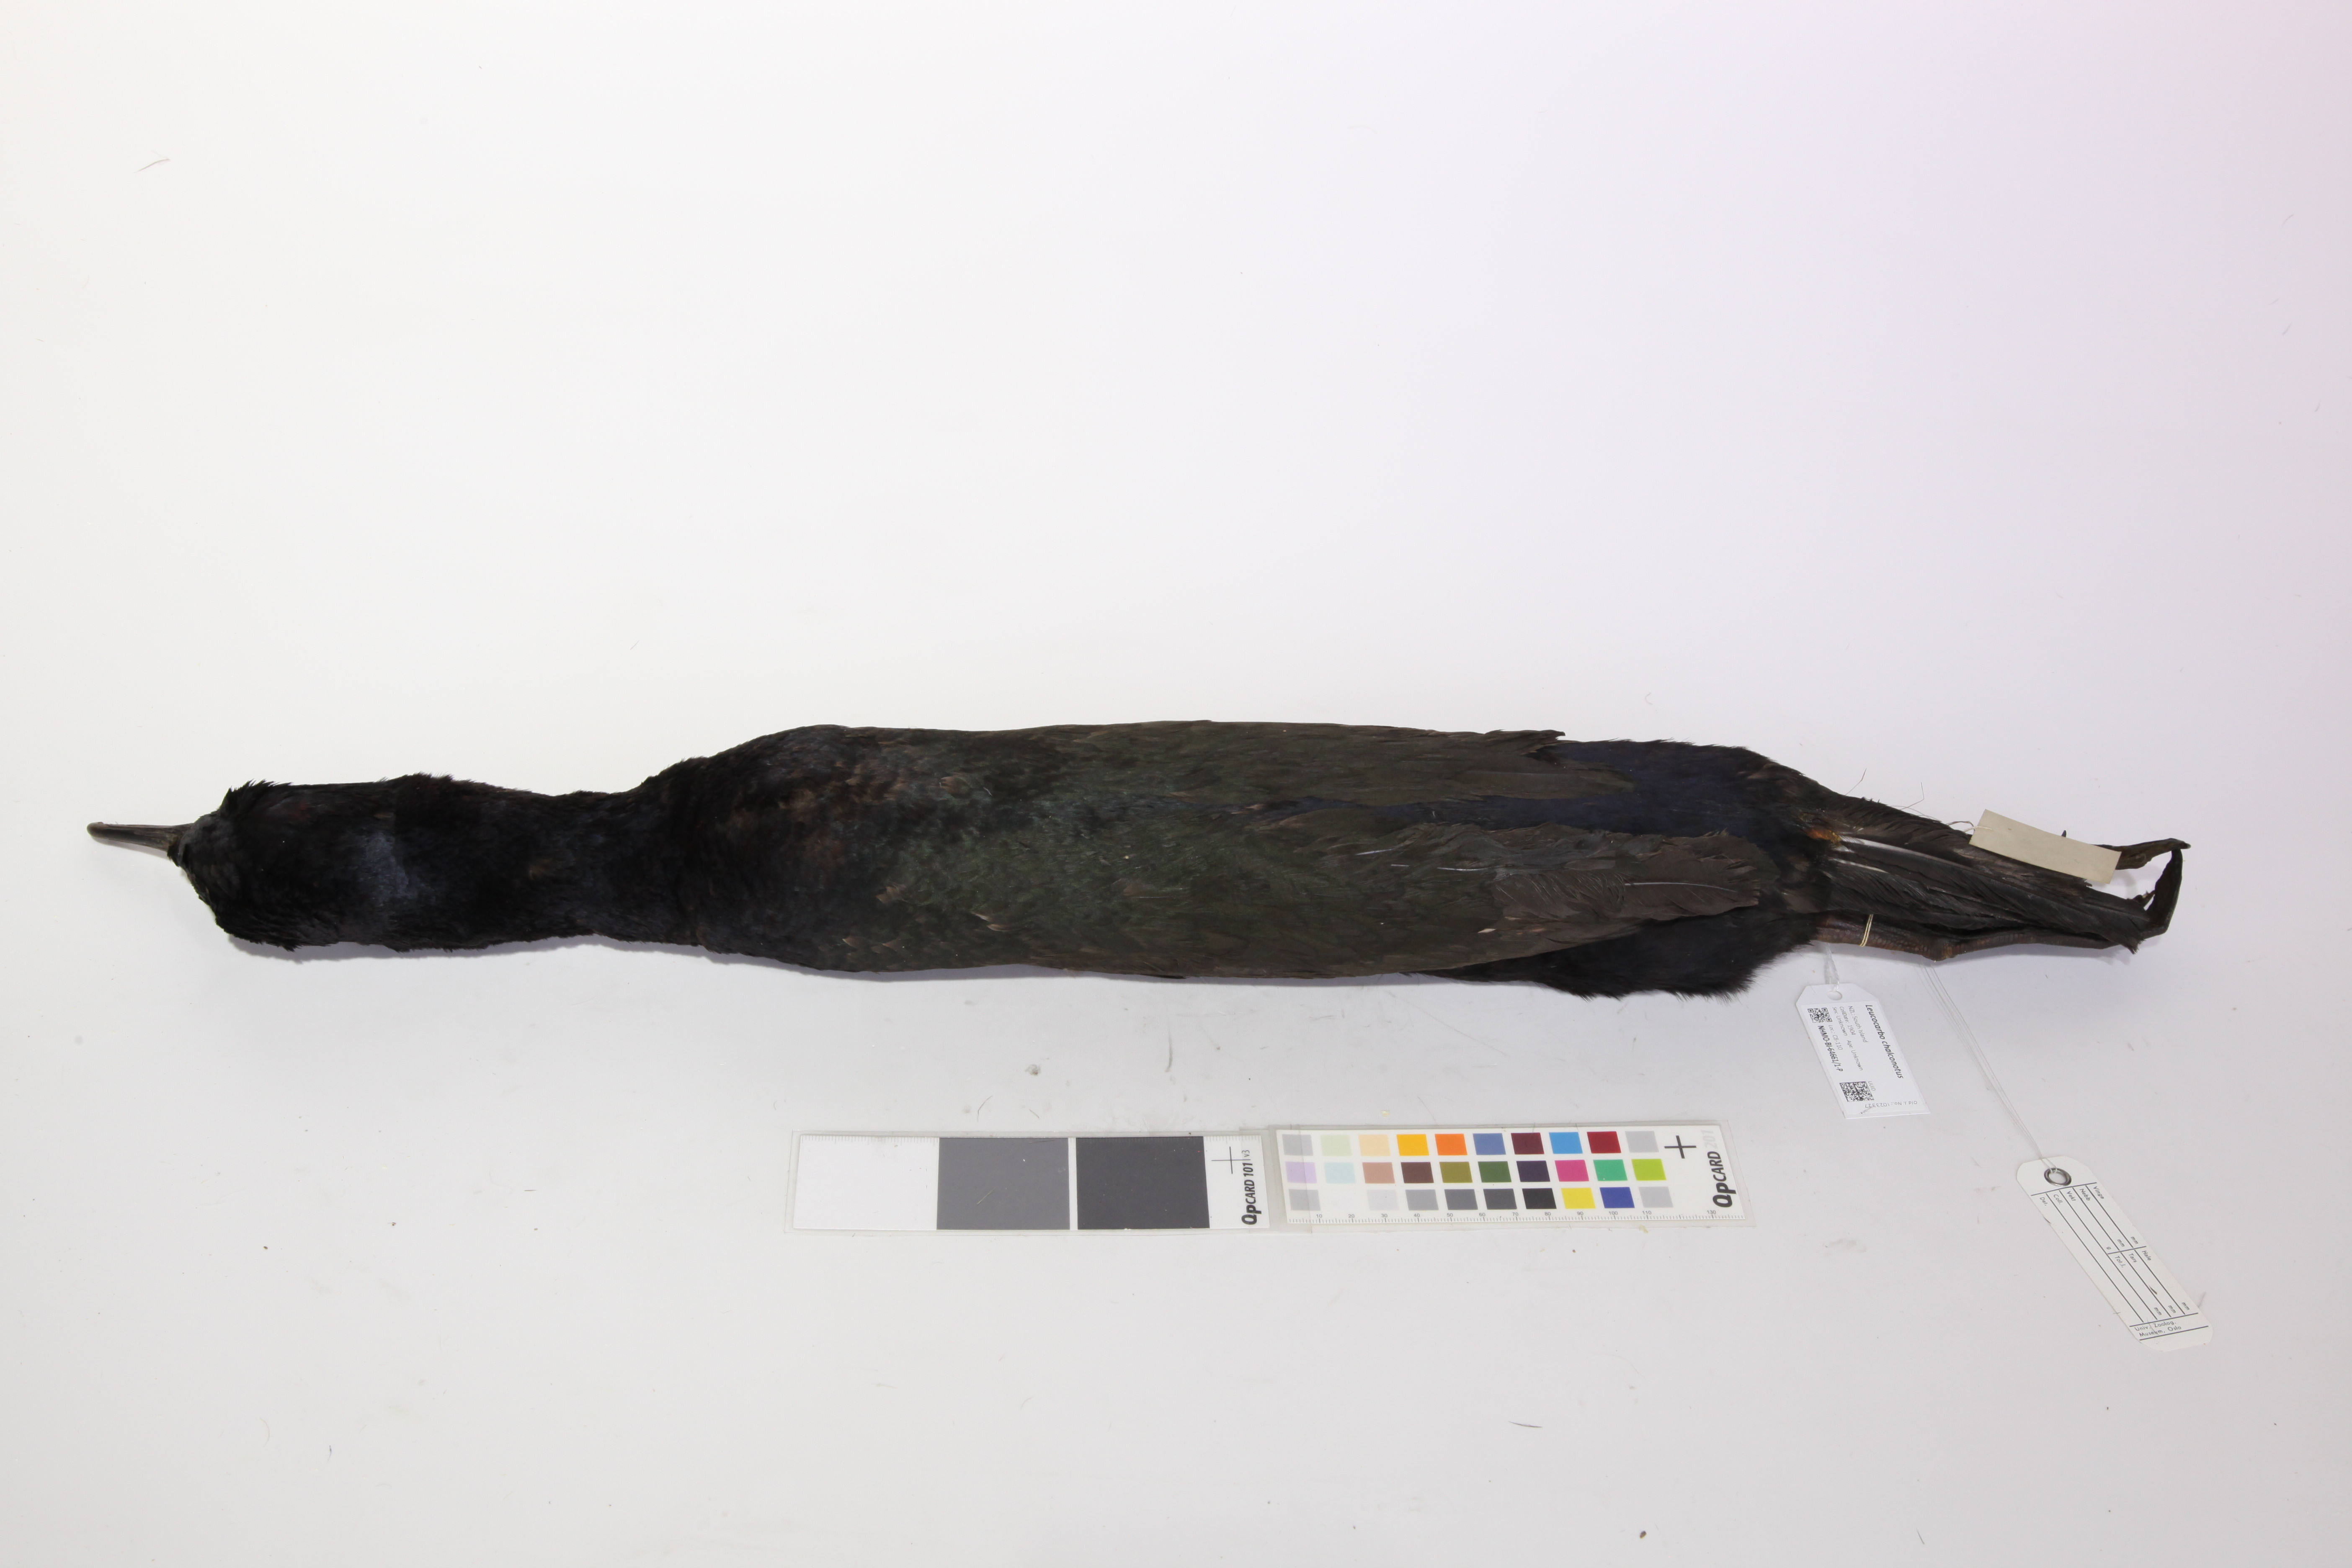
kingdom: Animalia
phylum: Chordata
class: Aves
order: Suliformes
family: Phalacrocoracidae
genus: Leucocarbo
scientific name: Leucocarbo chalconotus
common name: Stewart shag
